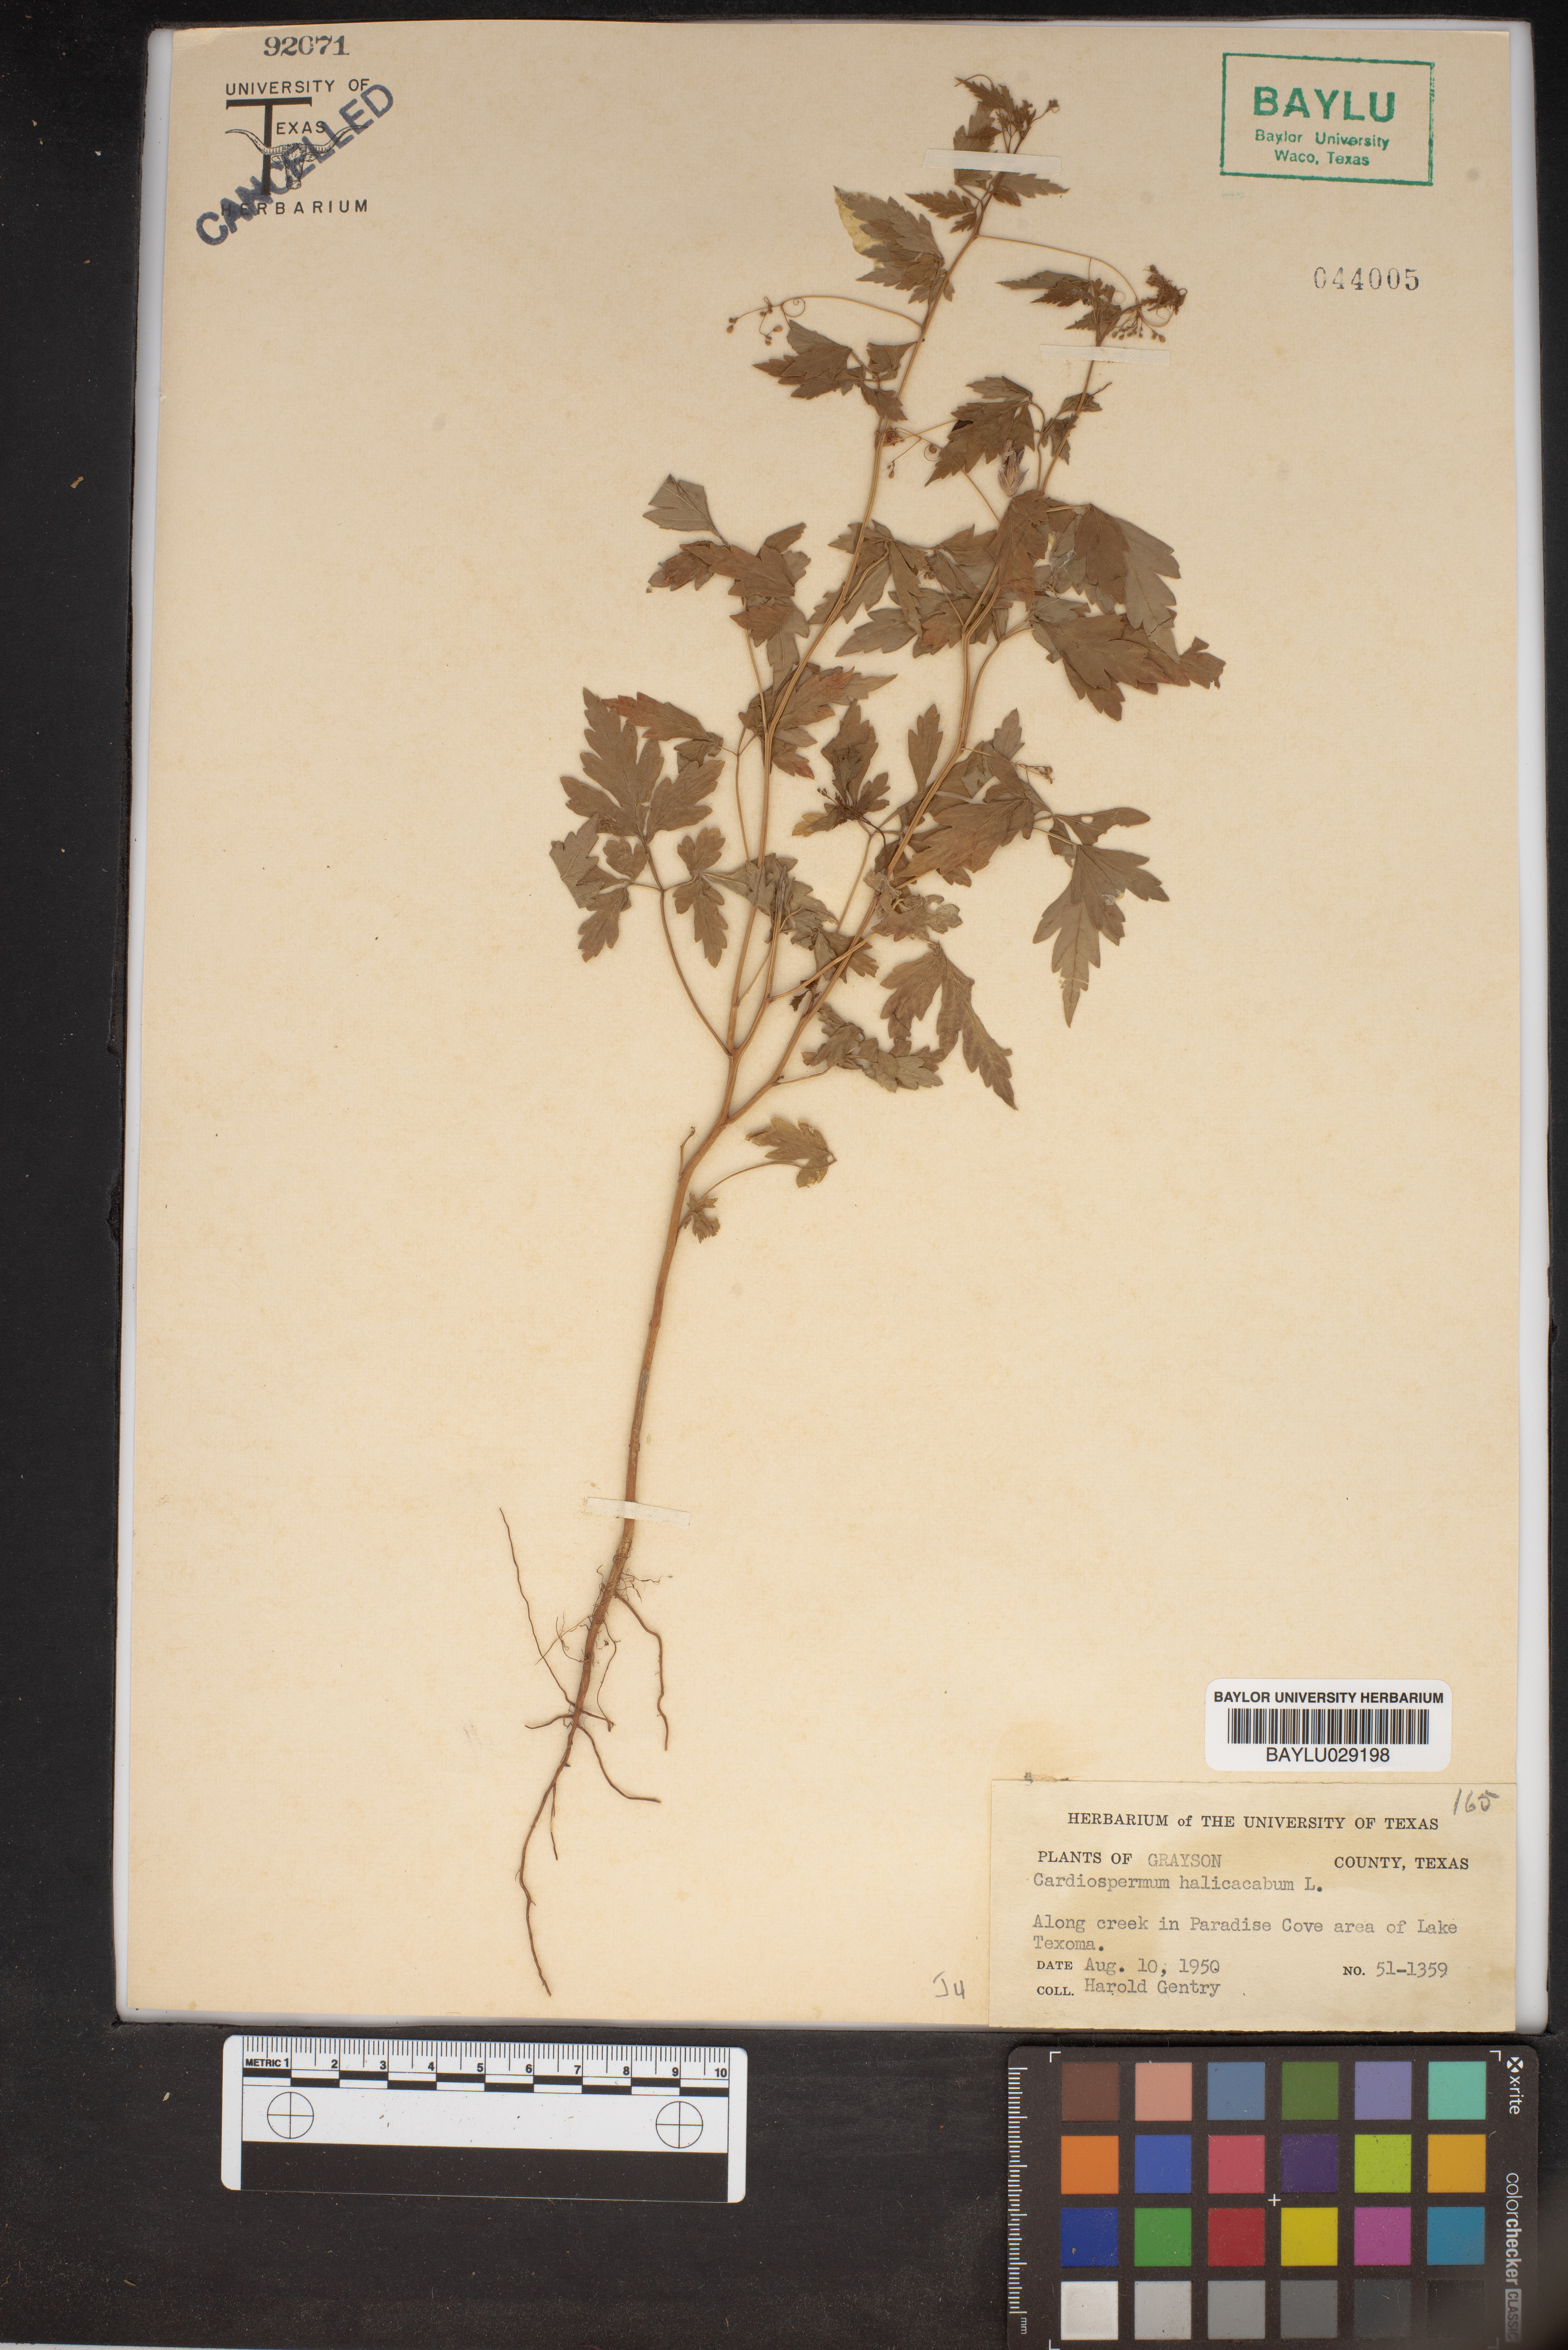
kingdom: Plantae
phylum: Tracheophyta
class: Magnoliopsida
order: Sapindales
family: Sapindaceae
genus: Cardiospermum
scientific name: Cardiospermum halicacabum
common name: Balloon vine
